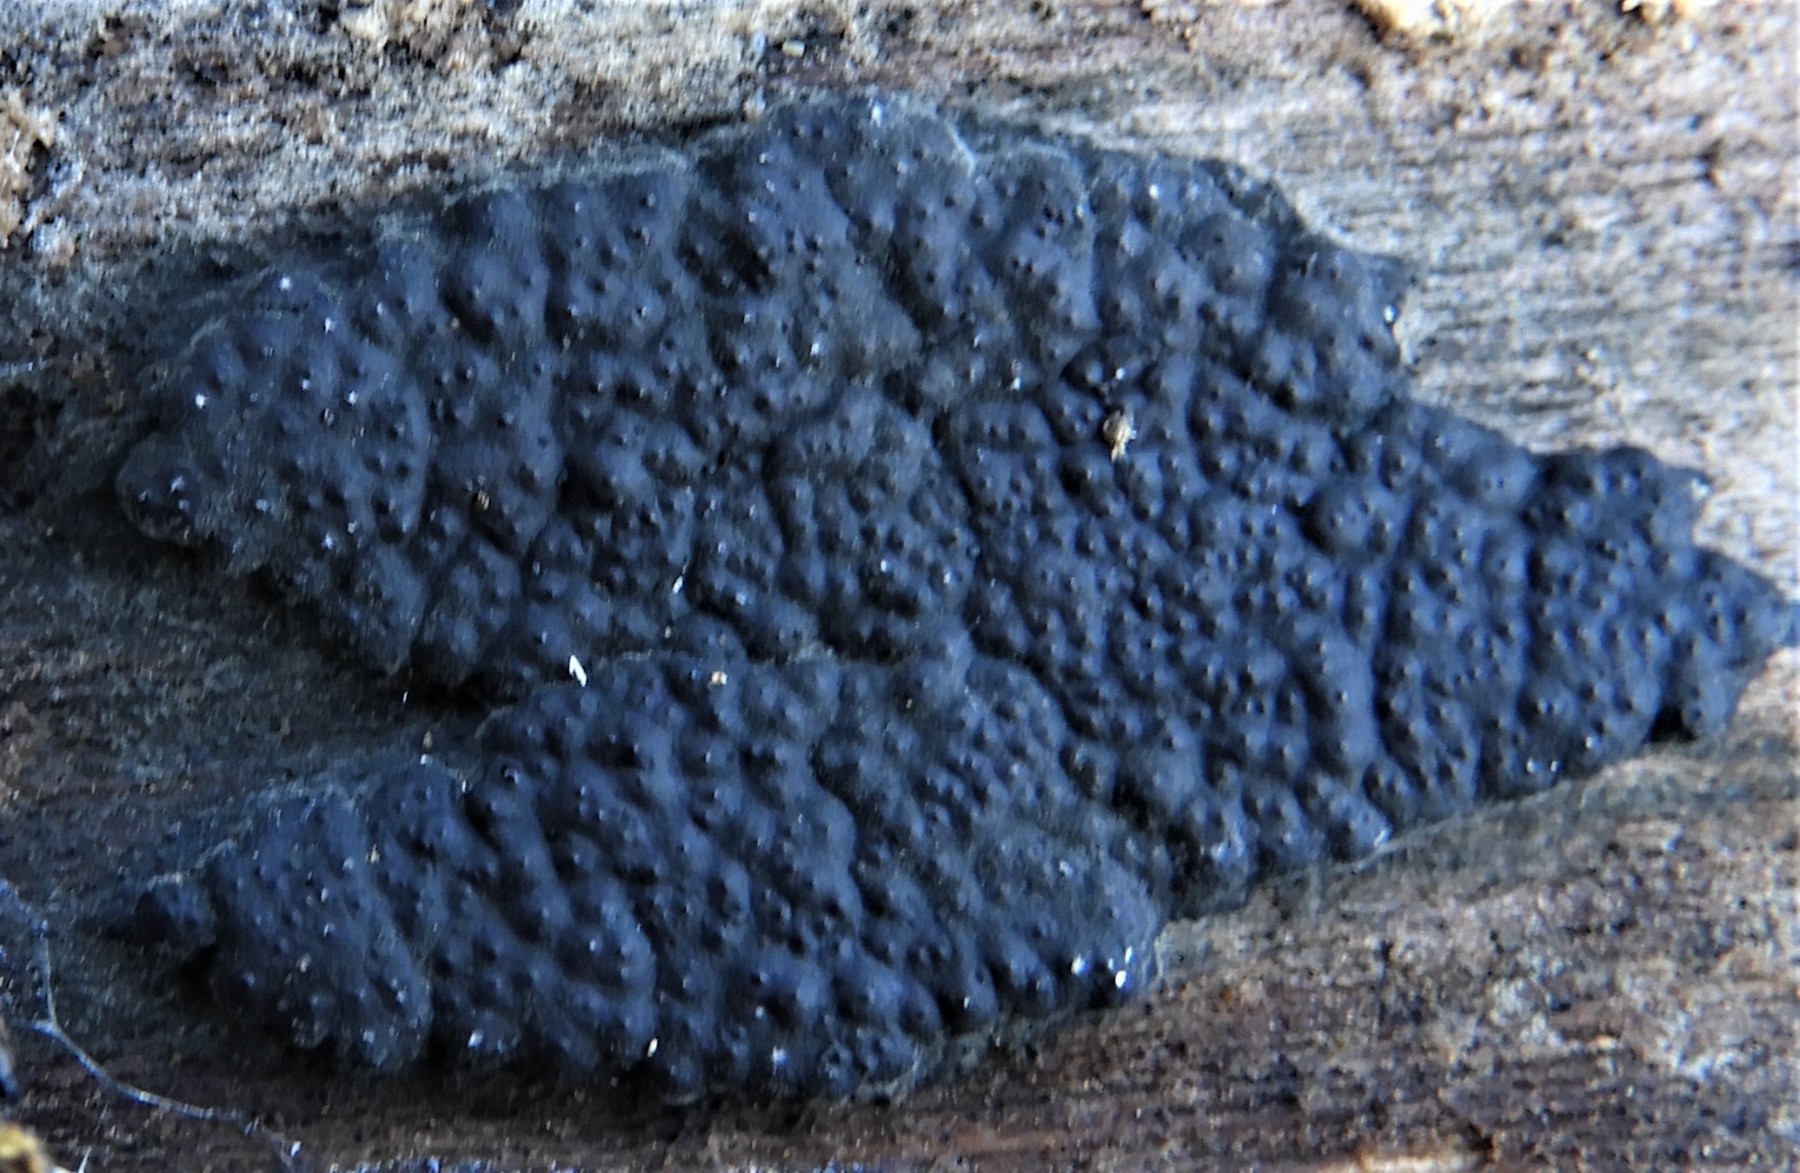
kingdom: Fungi
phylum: Ascomycota
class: Sordariomycetes
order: Xylariales
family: Xylariaceae
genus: Nemania
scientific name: Nemania
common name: kuldyne
